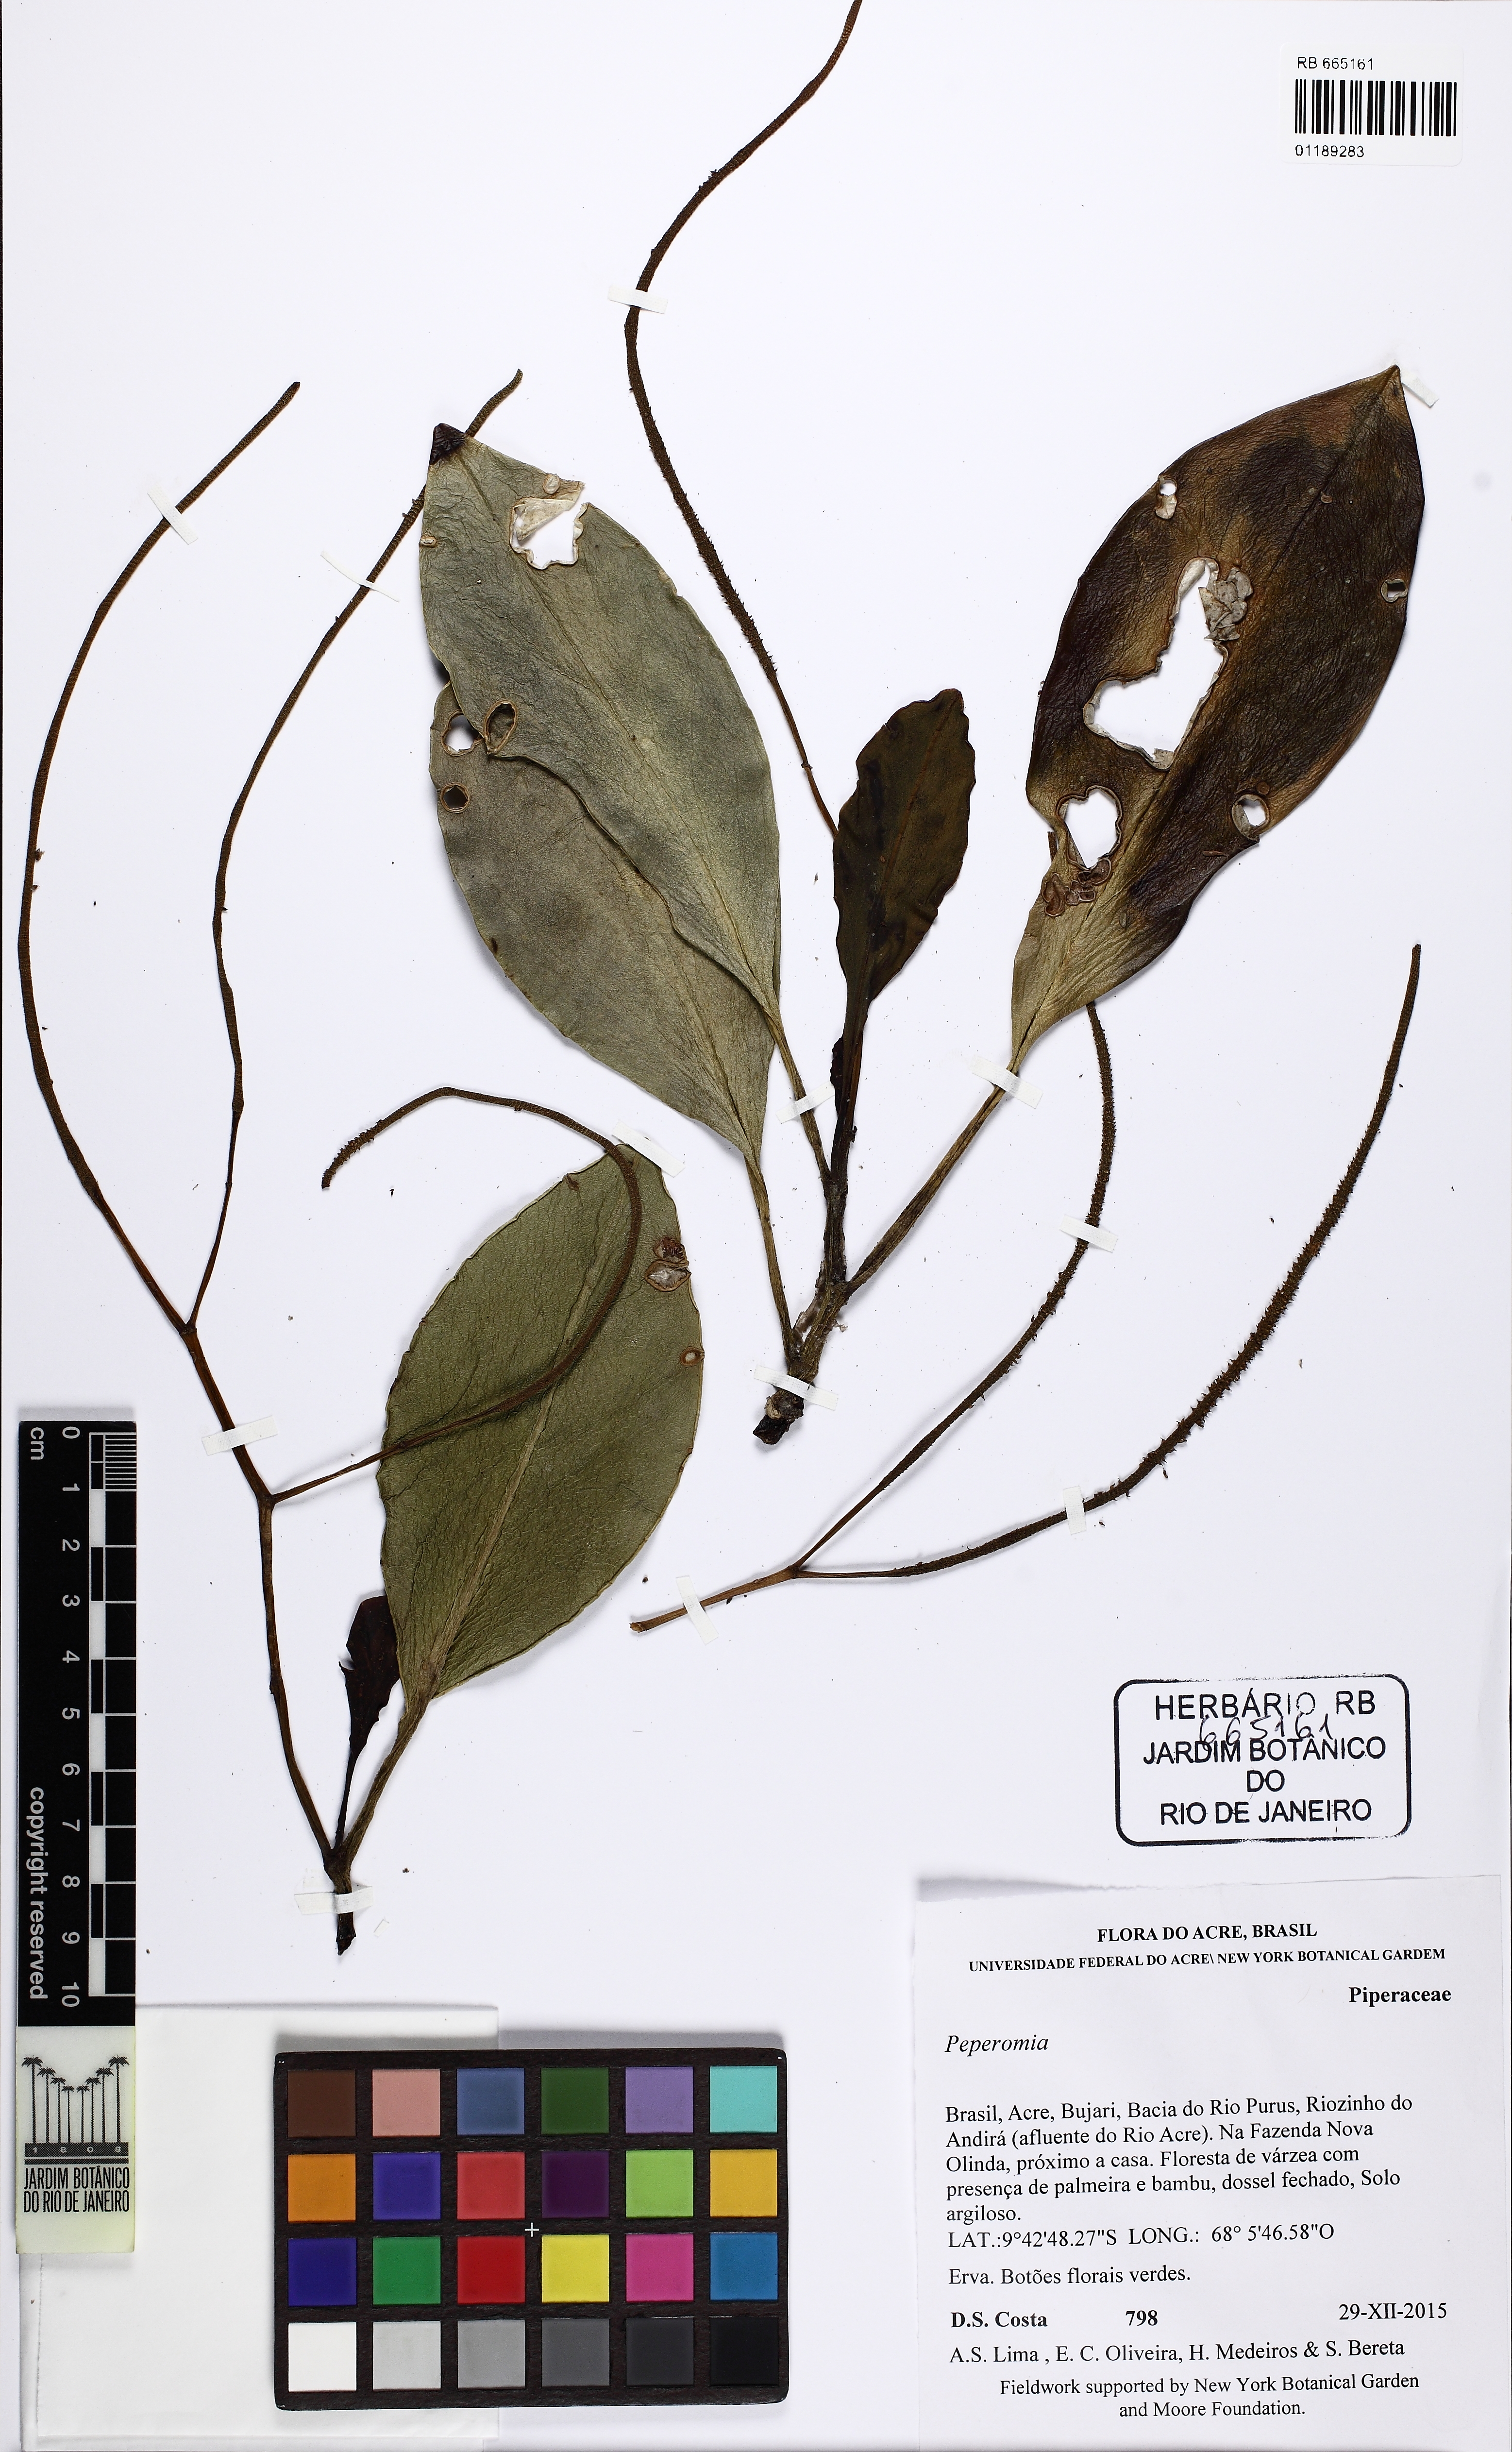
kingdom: Plantae
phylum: Tracheophyta
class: Magnoliopsida
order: Piperales
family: Piperaceae
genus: Peperomia
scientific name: Peperomia uaupesensis
